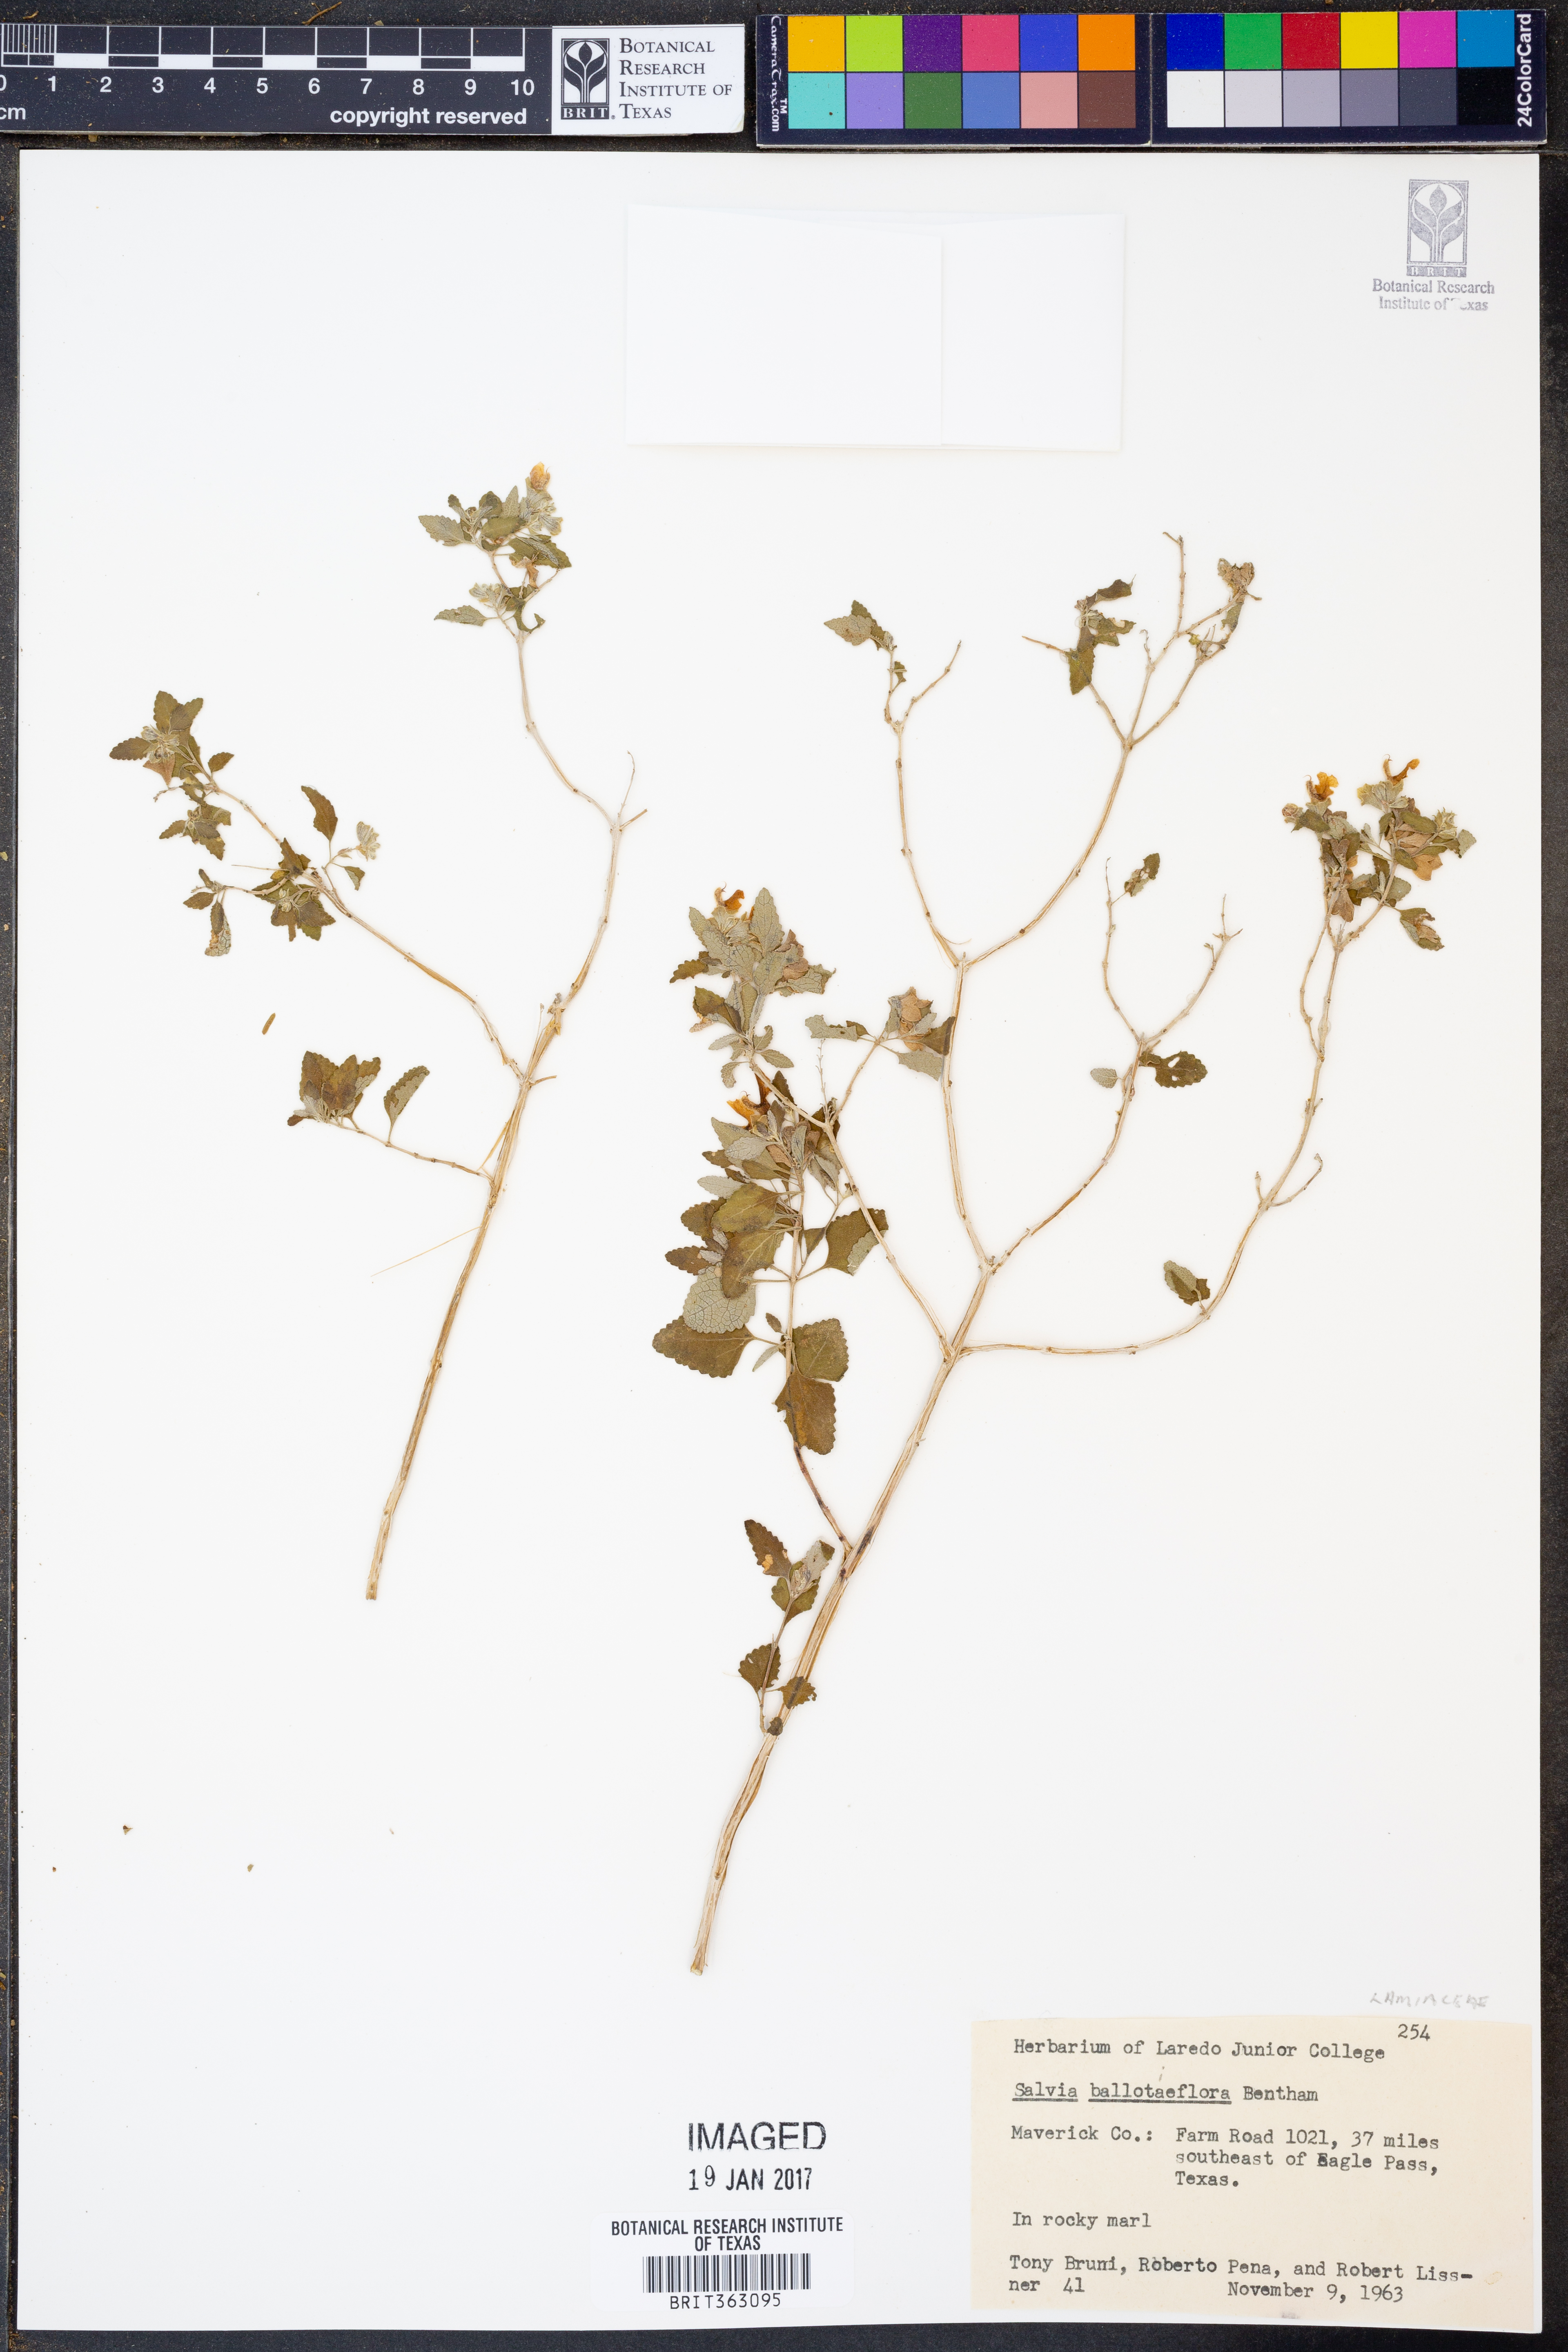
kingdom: Plantae
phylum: Tracheophyta
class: Magnoliopsida
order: Lamiales
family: Lamiaceae
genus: Salvia
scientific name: Salvia ballotiflora
